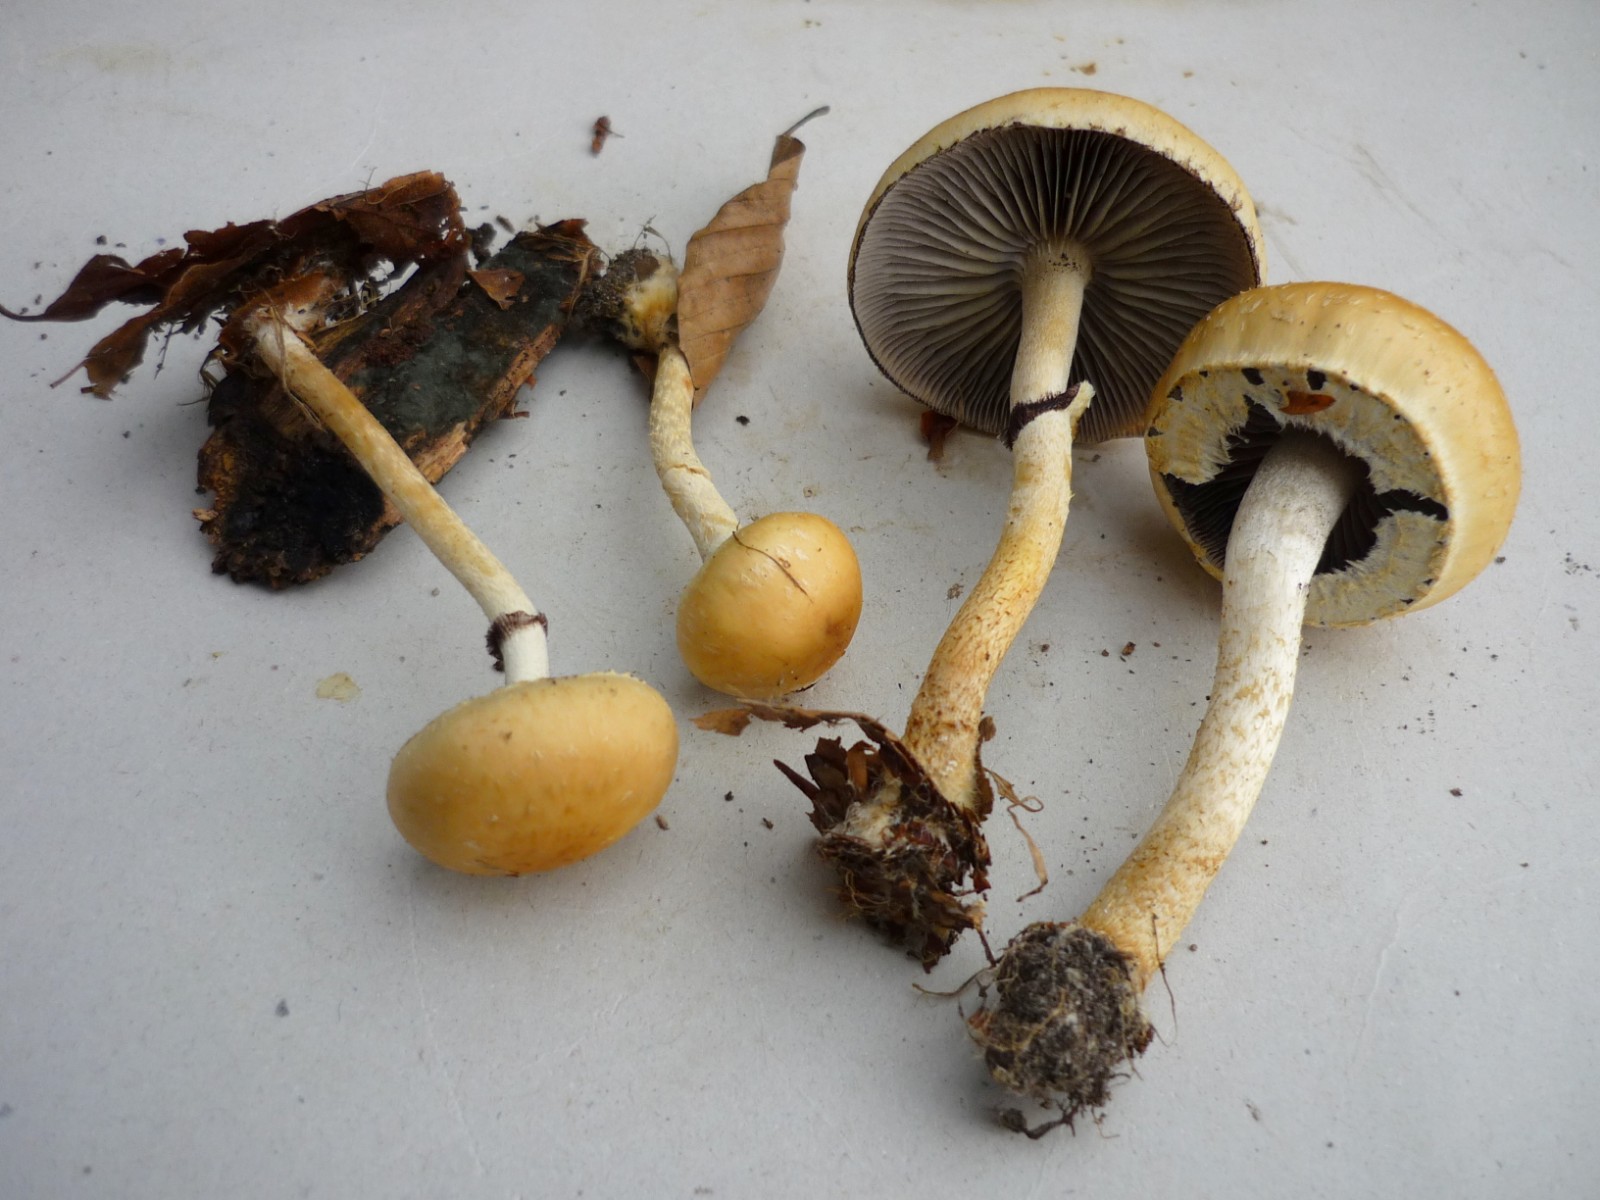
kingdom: Fungi
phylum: Basidiomycota
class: Agaricomycetes
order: Agaricales
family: Strophariaceae
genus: Leratiomyces
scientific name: Leratiomyces percevalii
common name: træflis-bredblad
